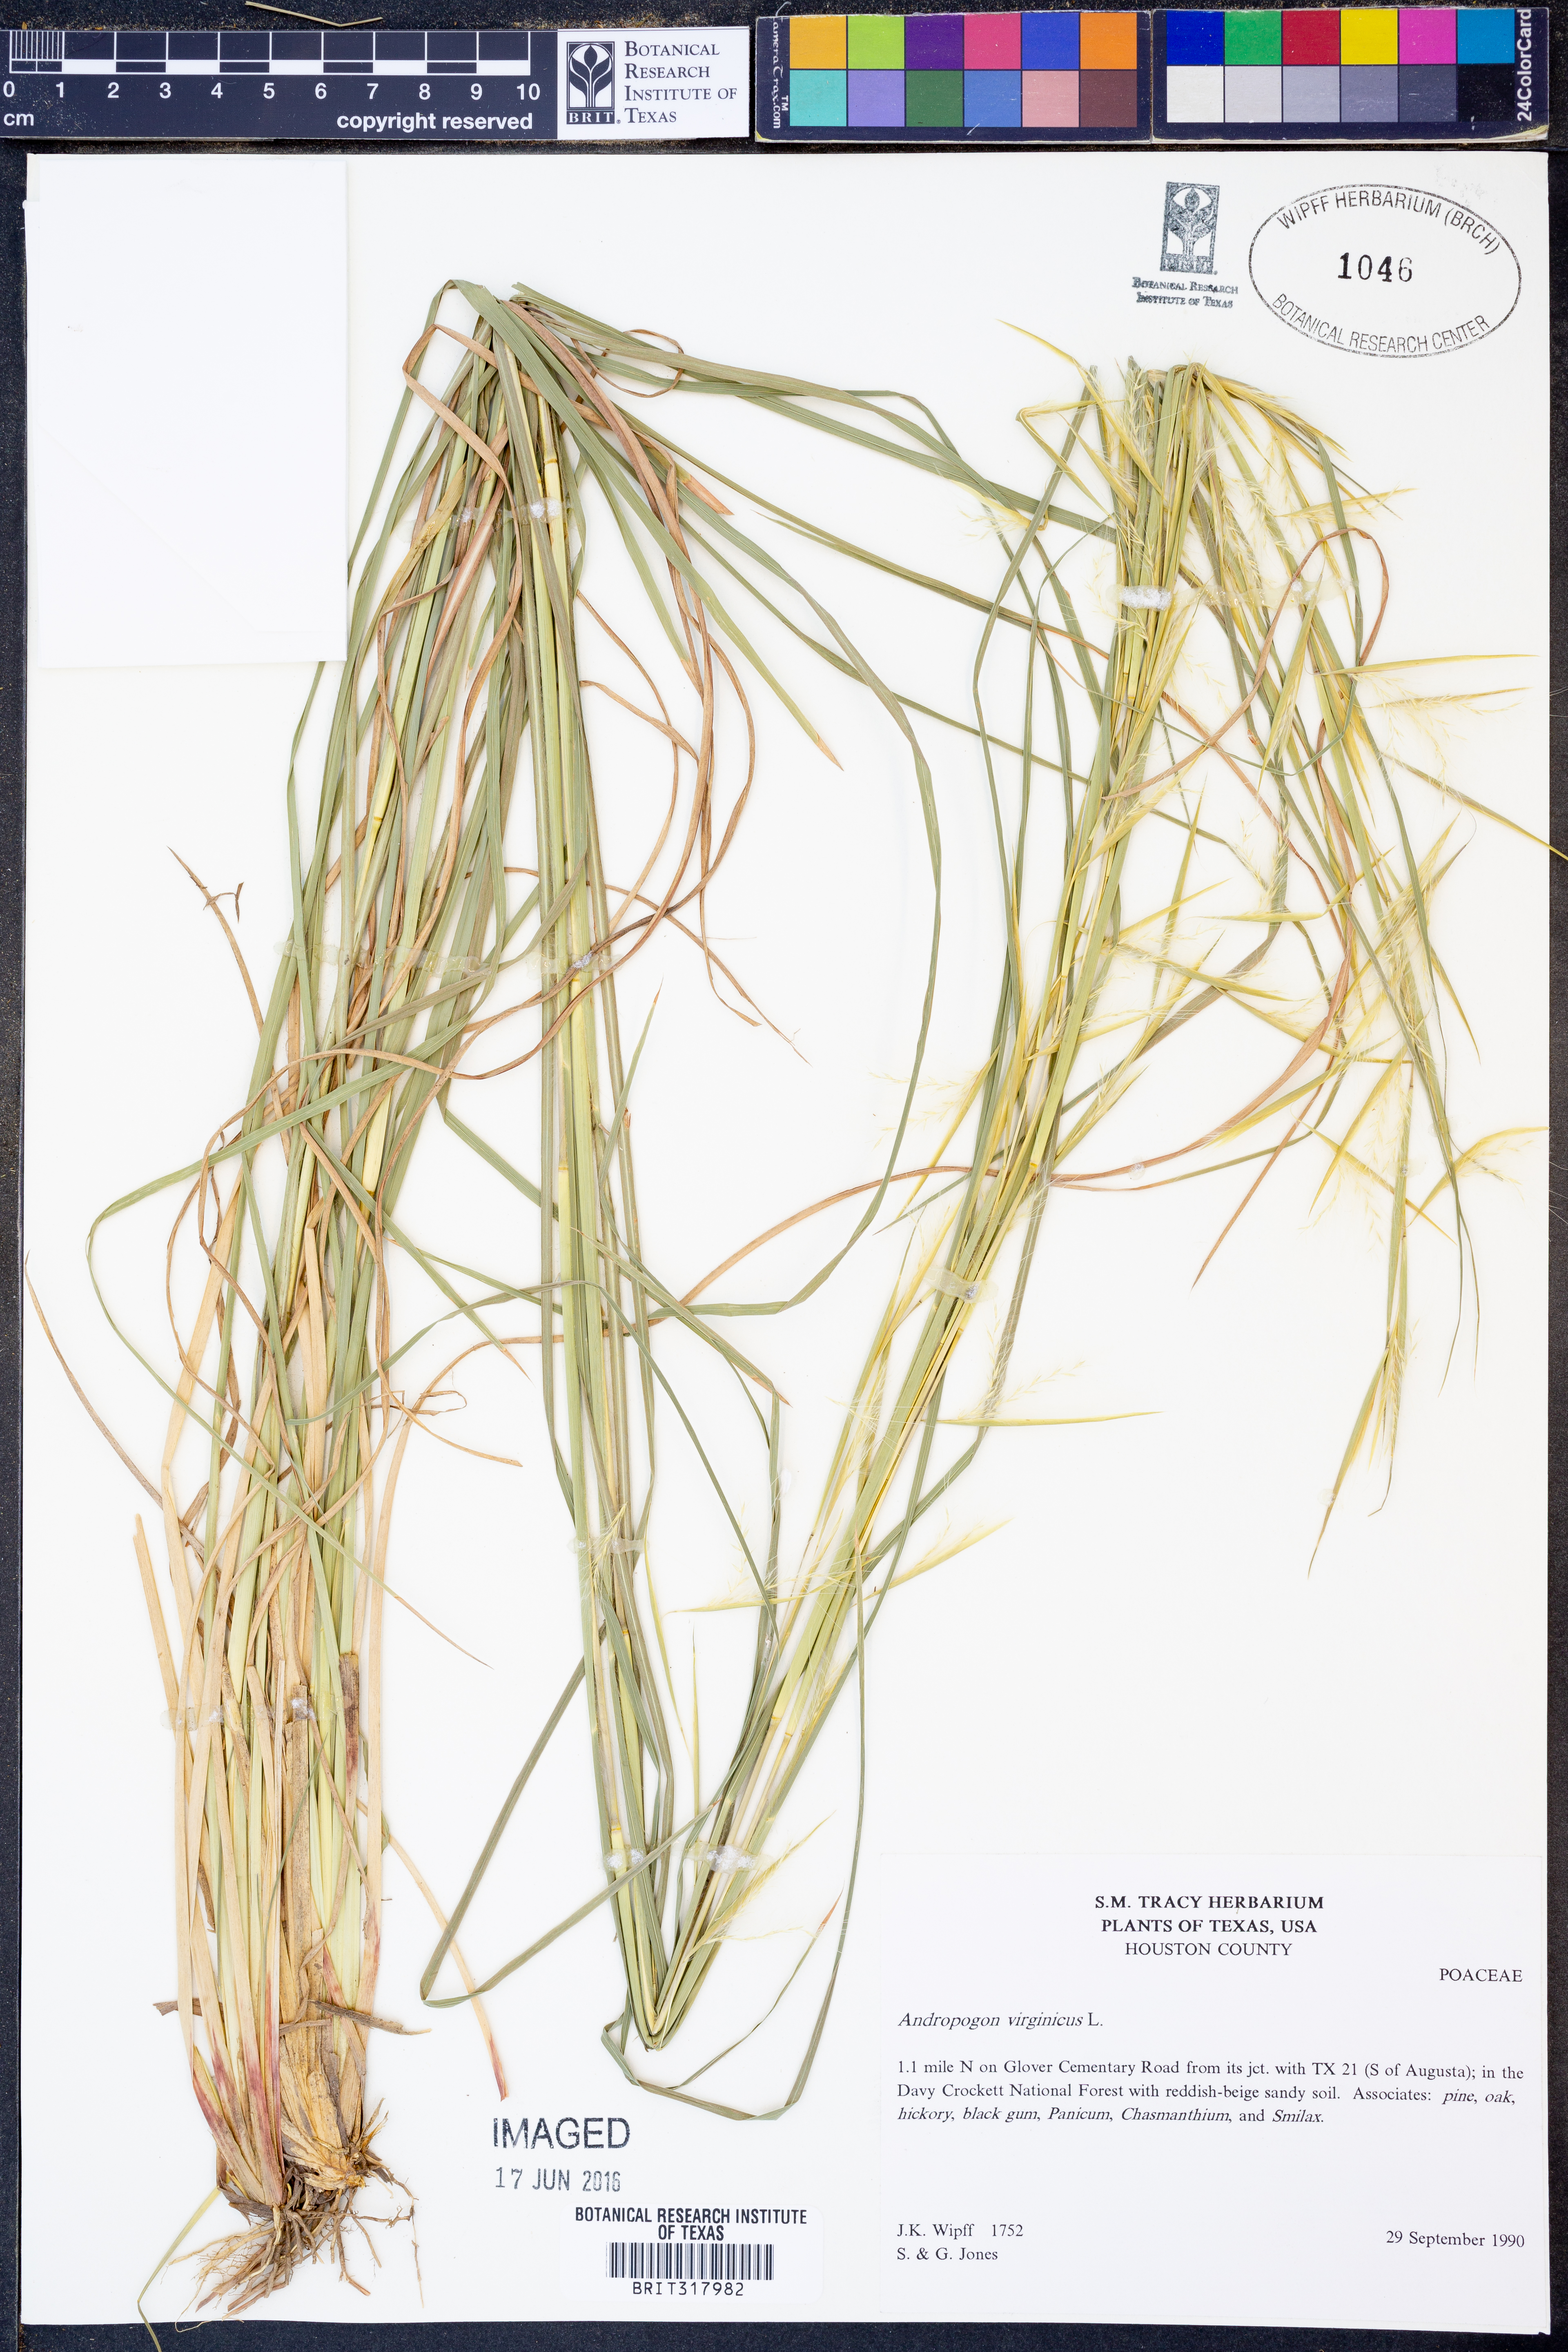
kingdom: Plantae
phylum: Tracheophyta
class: Liliopsida
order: Poales
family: Poaceae
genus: Andropogon
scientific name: Andropogon virginicus
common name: Broomsedge bluestem
